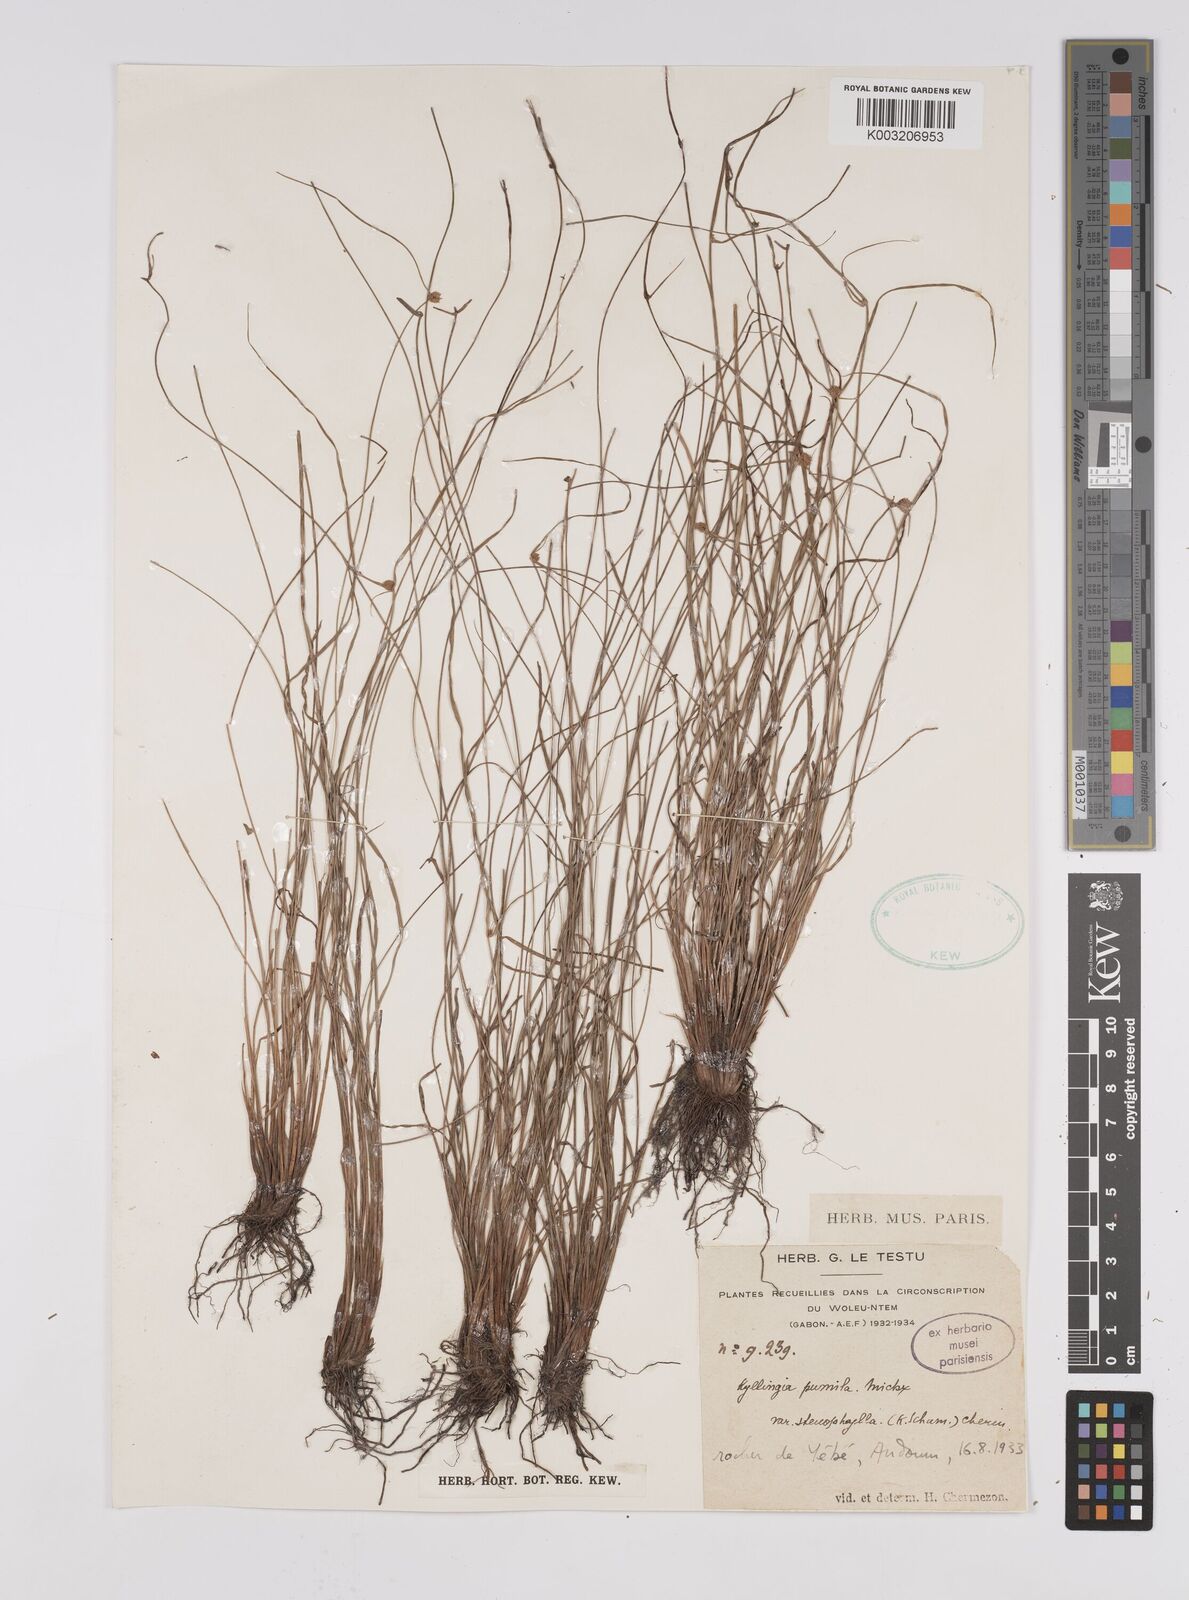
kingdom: Plantae
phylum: Tracheophyta
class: Liliopsida
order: Poales
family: Cyperaceae
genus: Cyperus
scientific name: Cyperus
